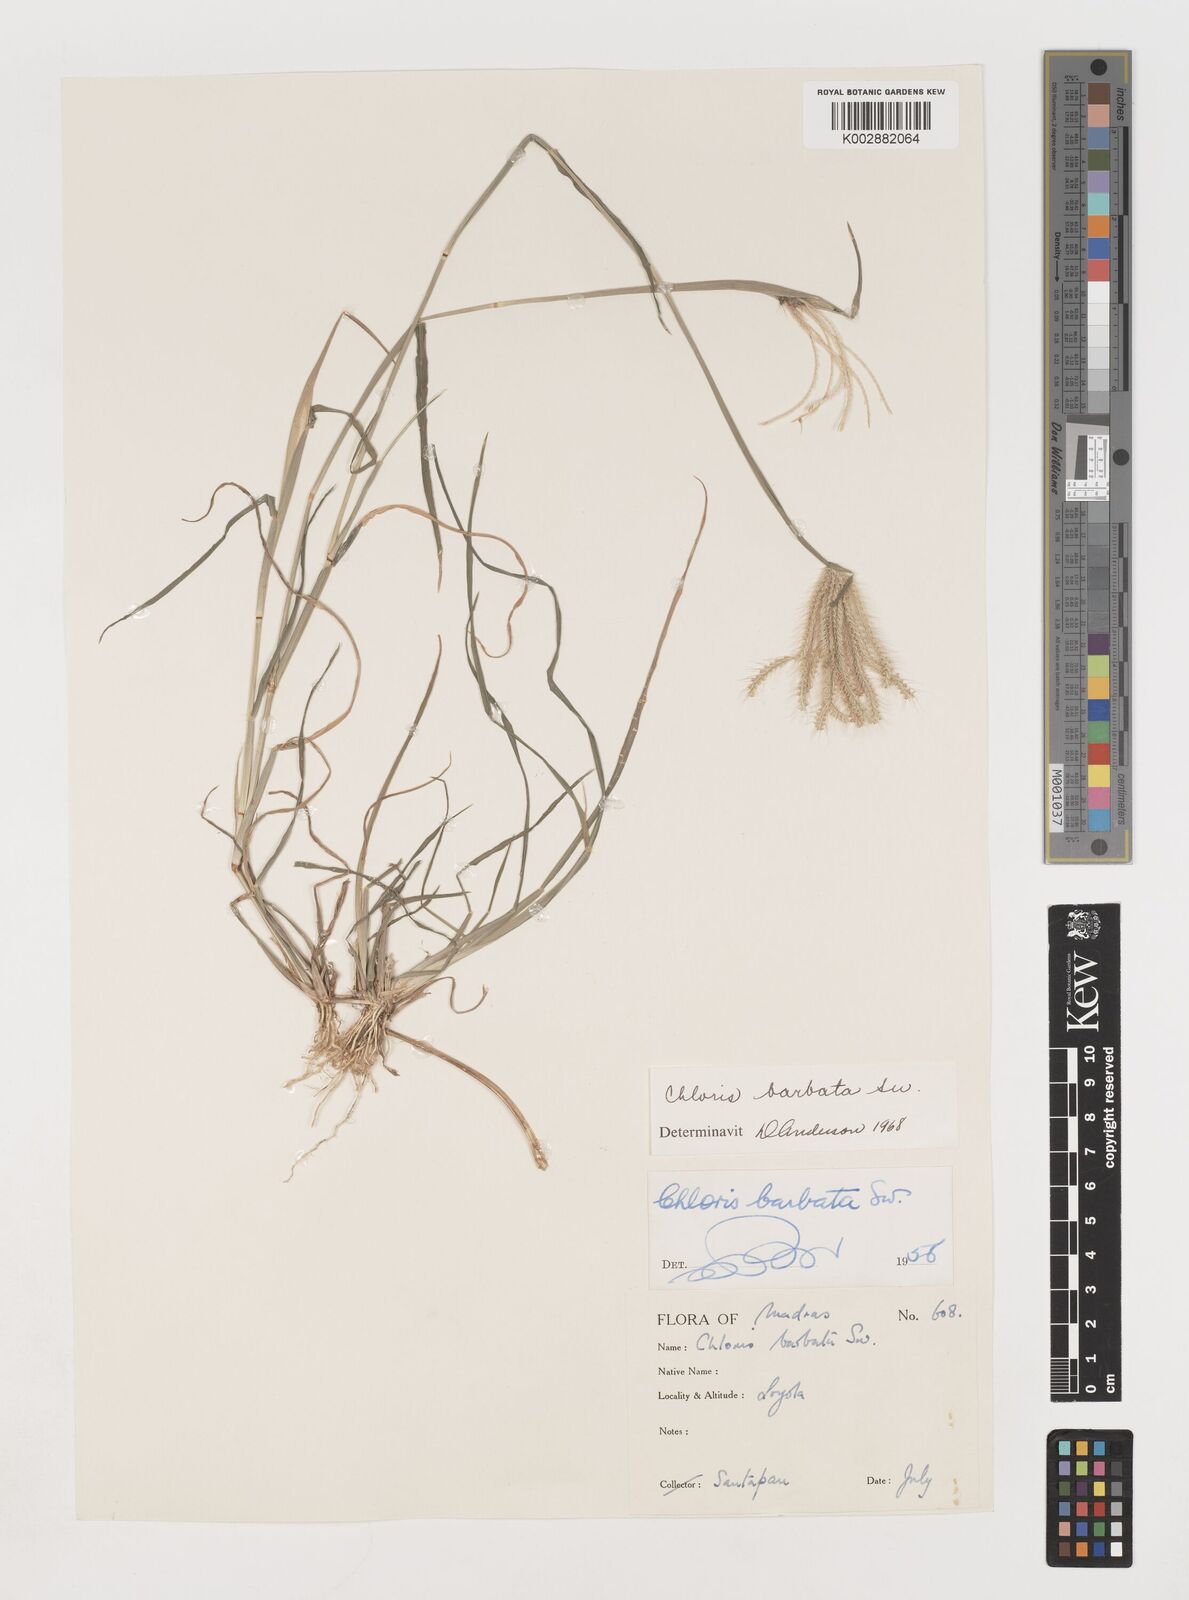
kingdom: Plantae
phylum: Tracheophyta
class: Liliopsida
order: Poales
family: Poaceae
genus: Chloris
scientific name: Chloris barbata
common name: Swollen fingergrass
